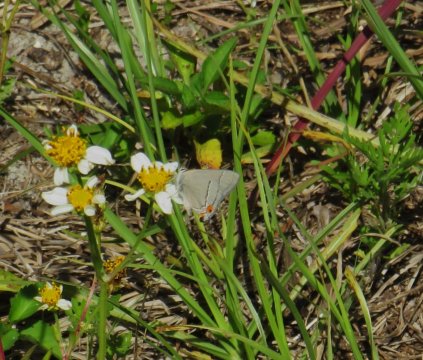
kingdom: Animalia
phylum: Arthropoda
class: Insecta
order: Lepidoptera
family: Lycaenidae
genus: Strymon
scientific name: Strymon melinus
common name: Gray Hairstreak
